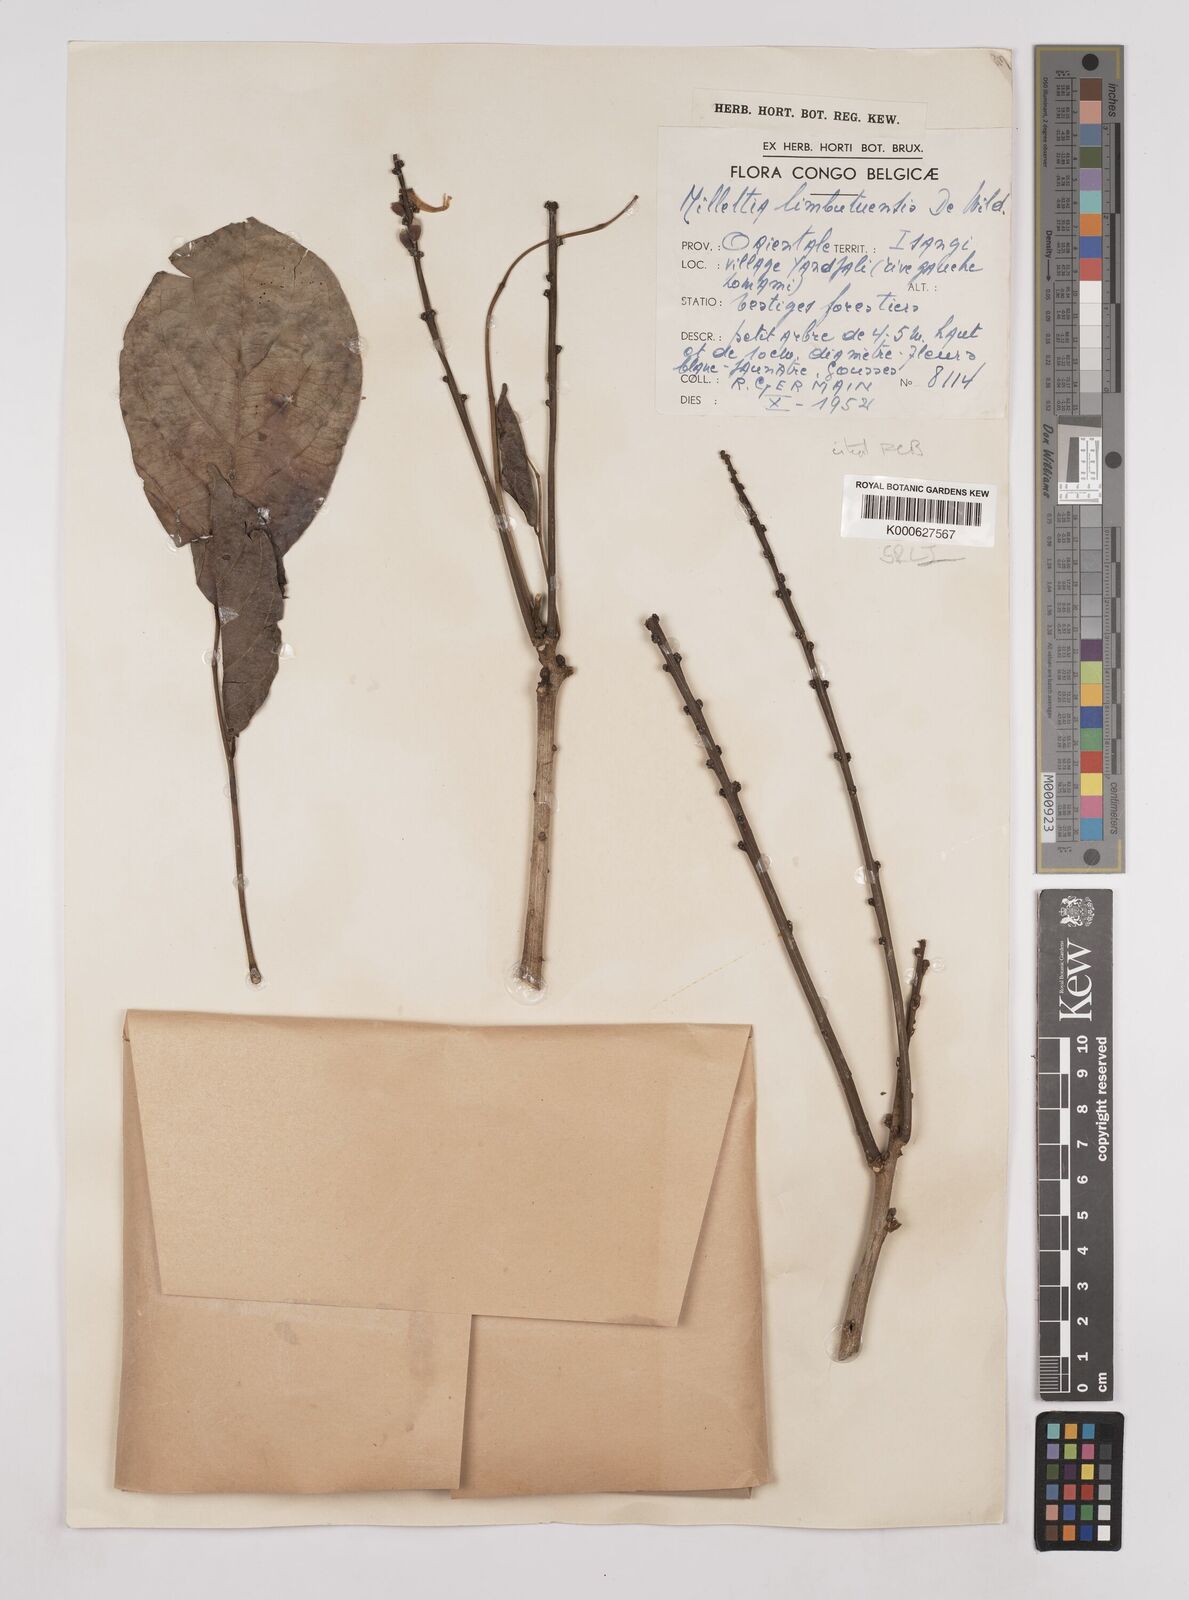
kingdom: Plantae
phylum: Tracheophyta
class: Magnoliopsida
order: Fabales
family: Fabaceae
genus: Millettia
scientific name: Millettia limbutuensis
